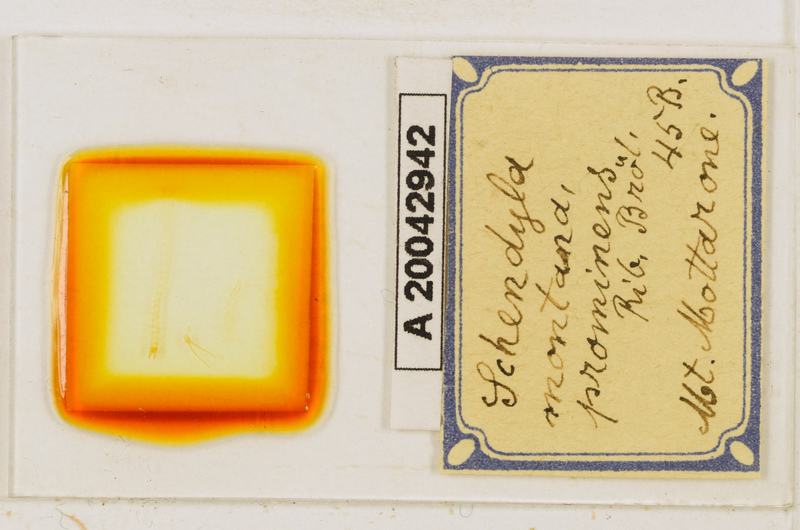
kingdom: Animalia
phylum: Arthropoda
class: Chilopoda
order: Geophilomorpha
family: Schendylidae
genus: Schendyla
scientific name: Schendyla montana
